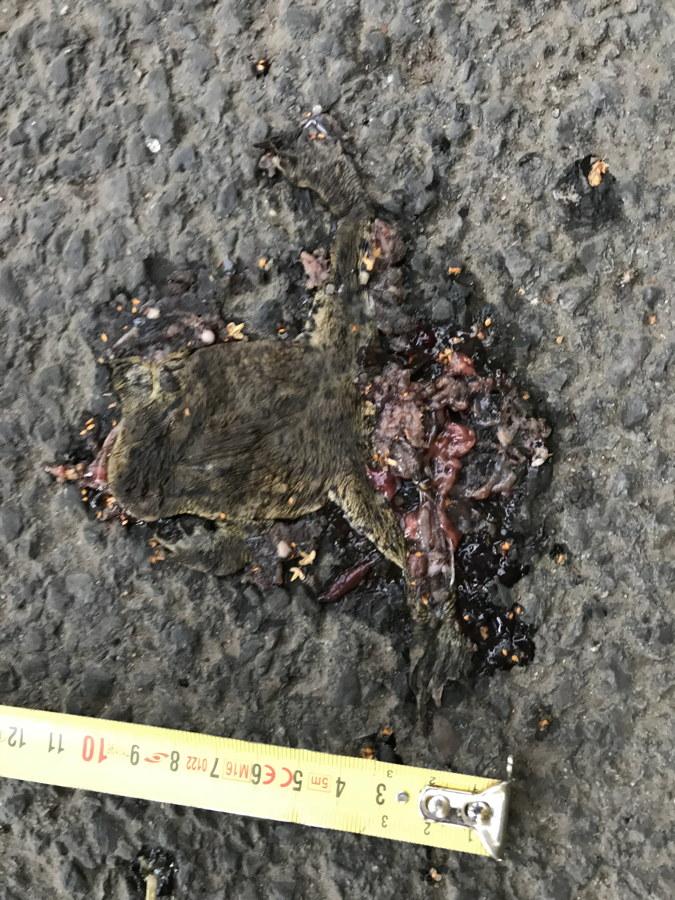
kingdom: Animalia
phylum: Chordata
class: Amphibia
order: Anura
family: Bufonidae
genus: Bufo
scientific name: Bufo bufo
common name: Common toad
